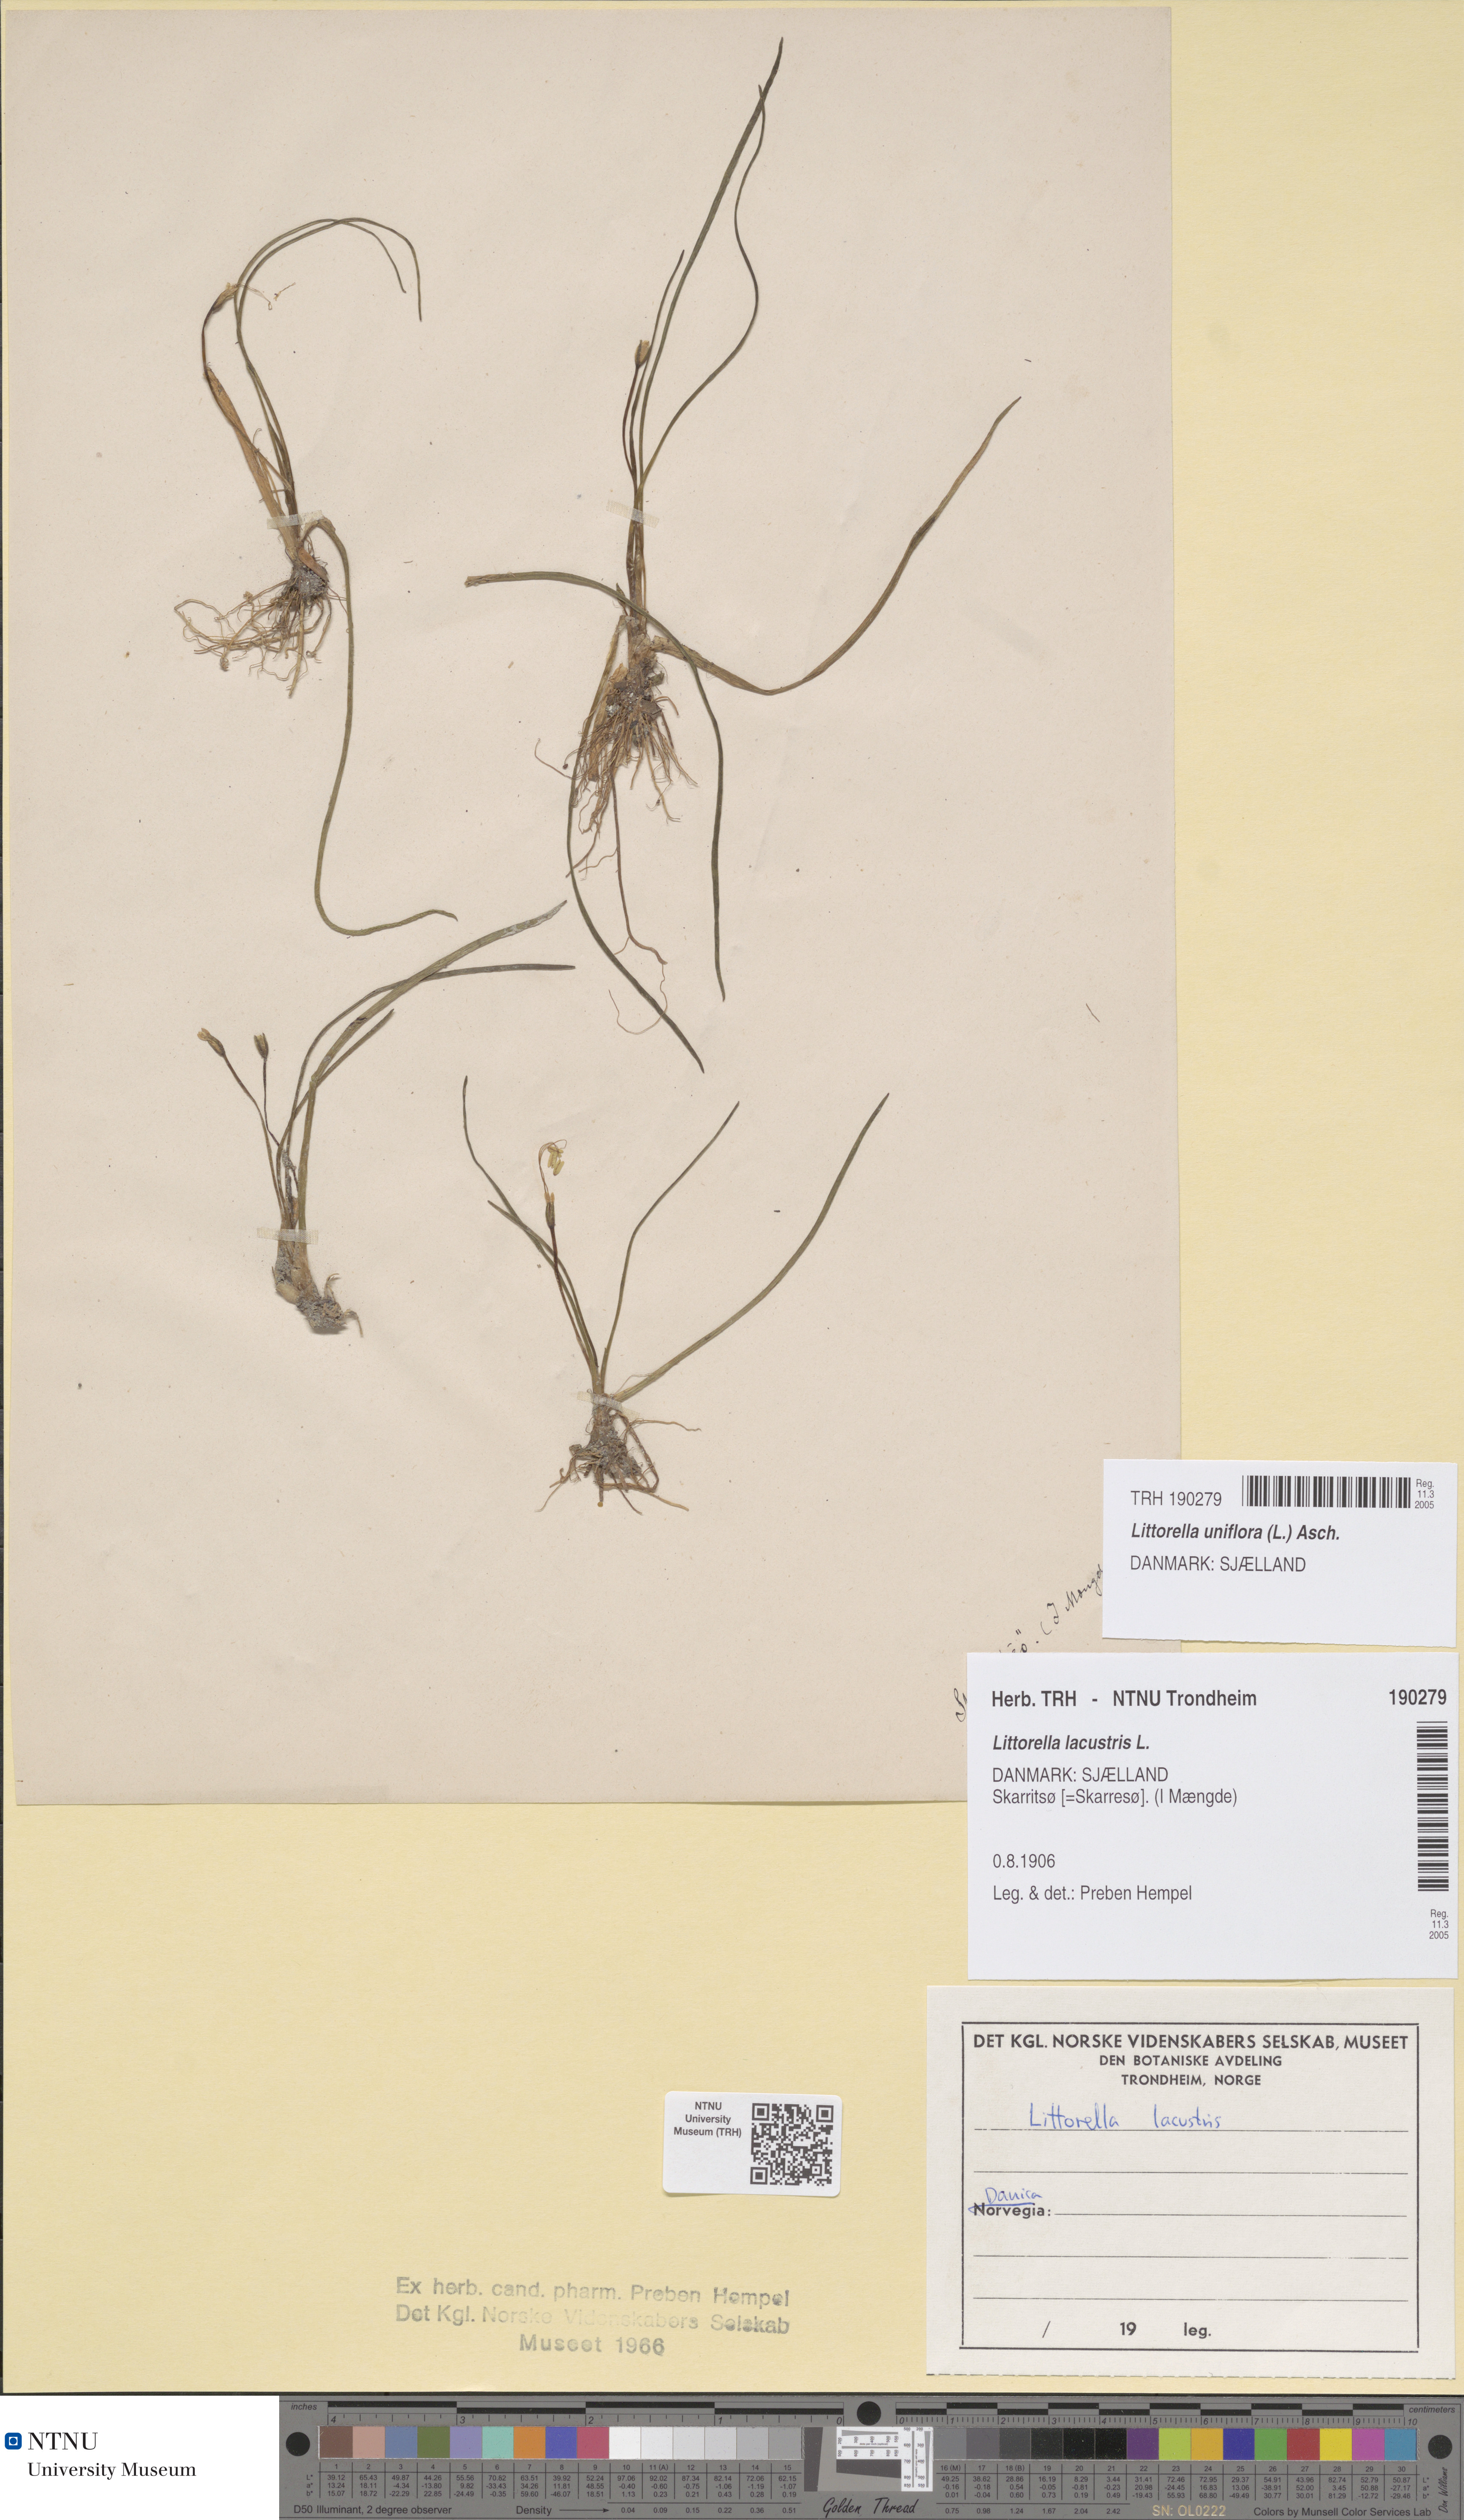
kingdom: Plantae
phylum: Tracheophyta
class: Magnoliopsida
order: Lamiales
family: Plantaginaceae
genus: Littorella
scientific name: Littorella uniflora
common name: Shoreweed
